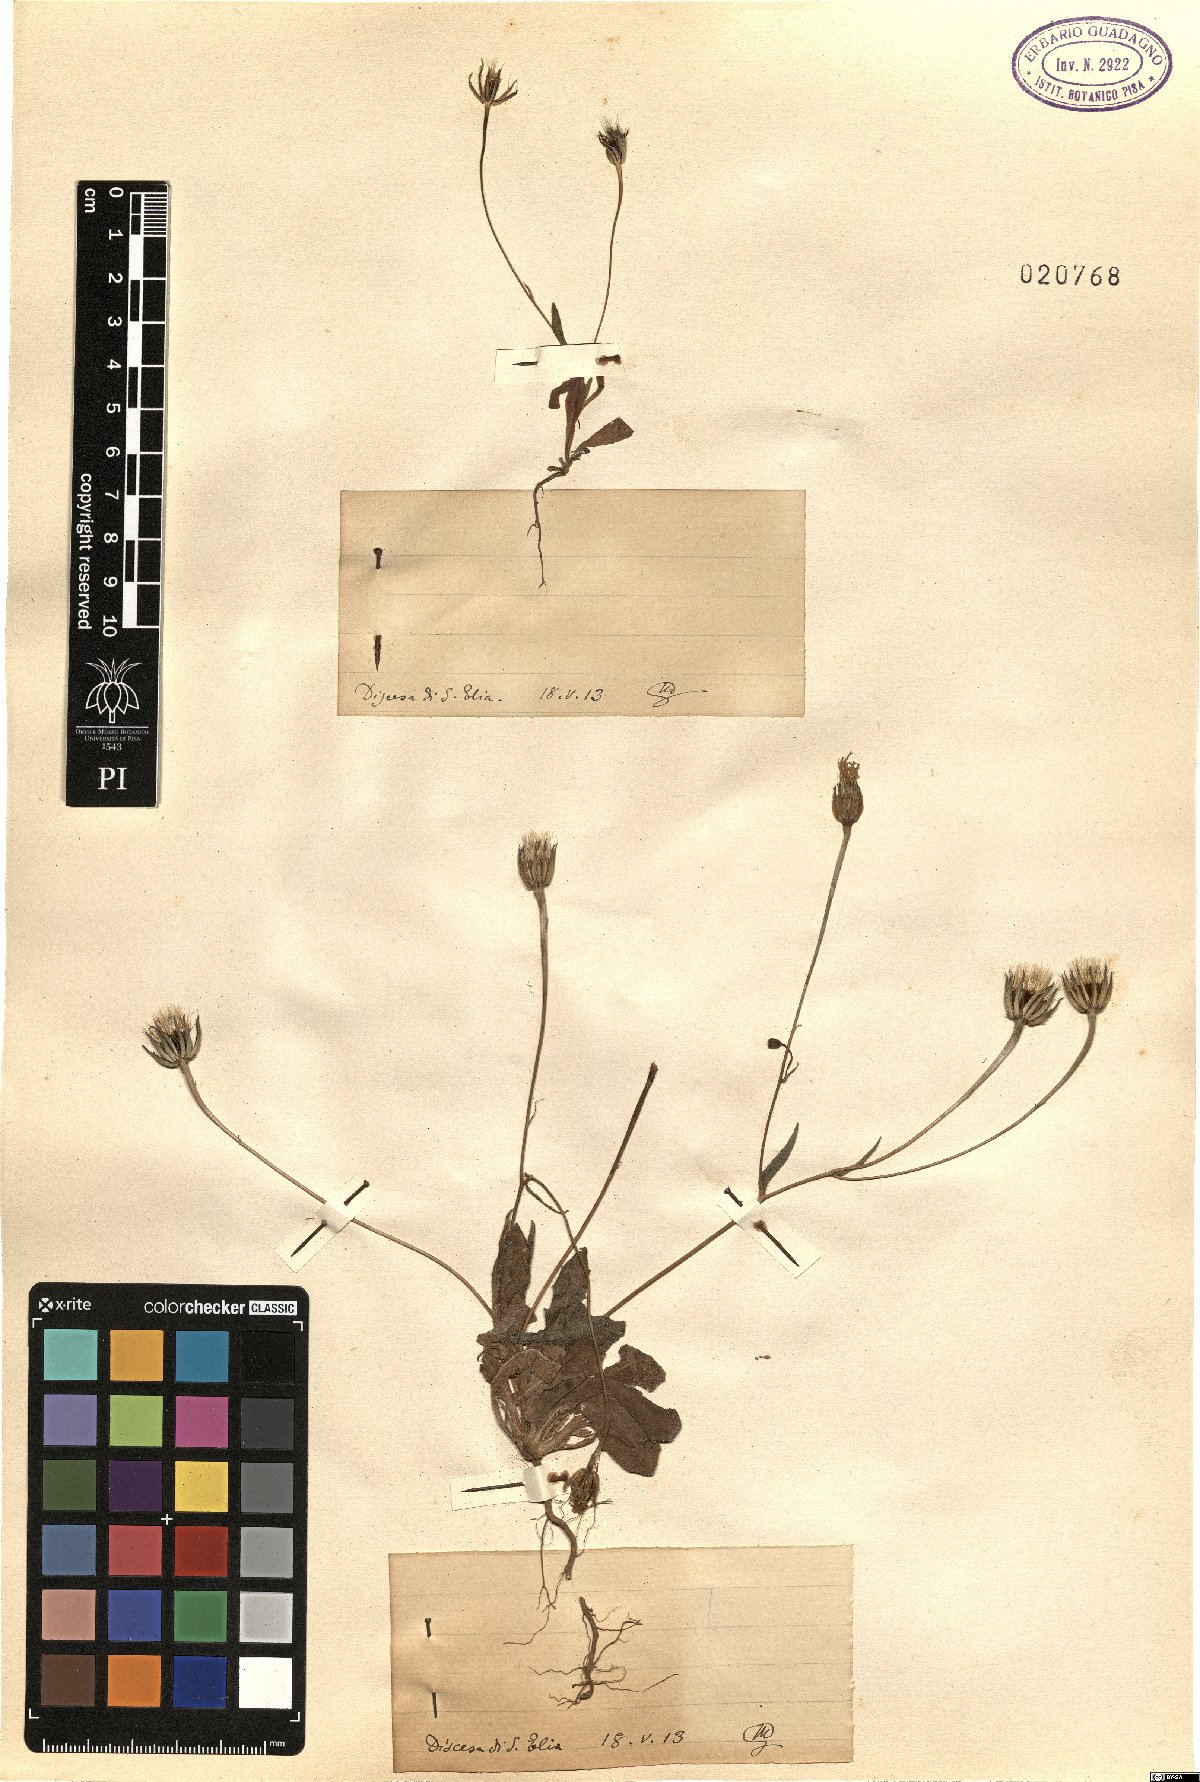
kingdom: Plantae
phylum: Tracheophyta
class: Magnoliopsida
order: Asterales
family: Asteraceae
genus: Rhagadiolus
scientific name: Rhagadiolus
